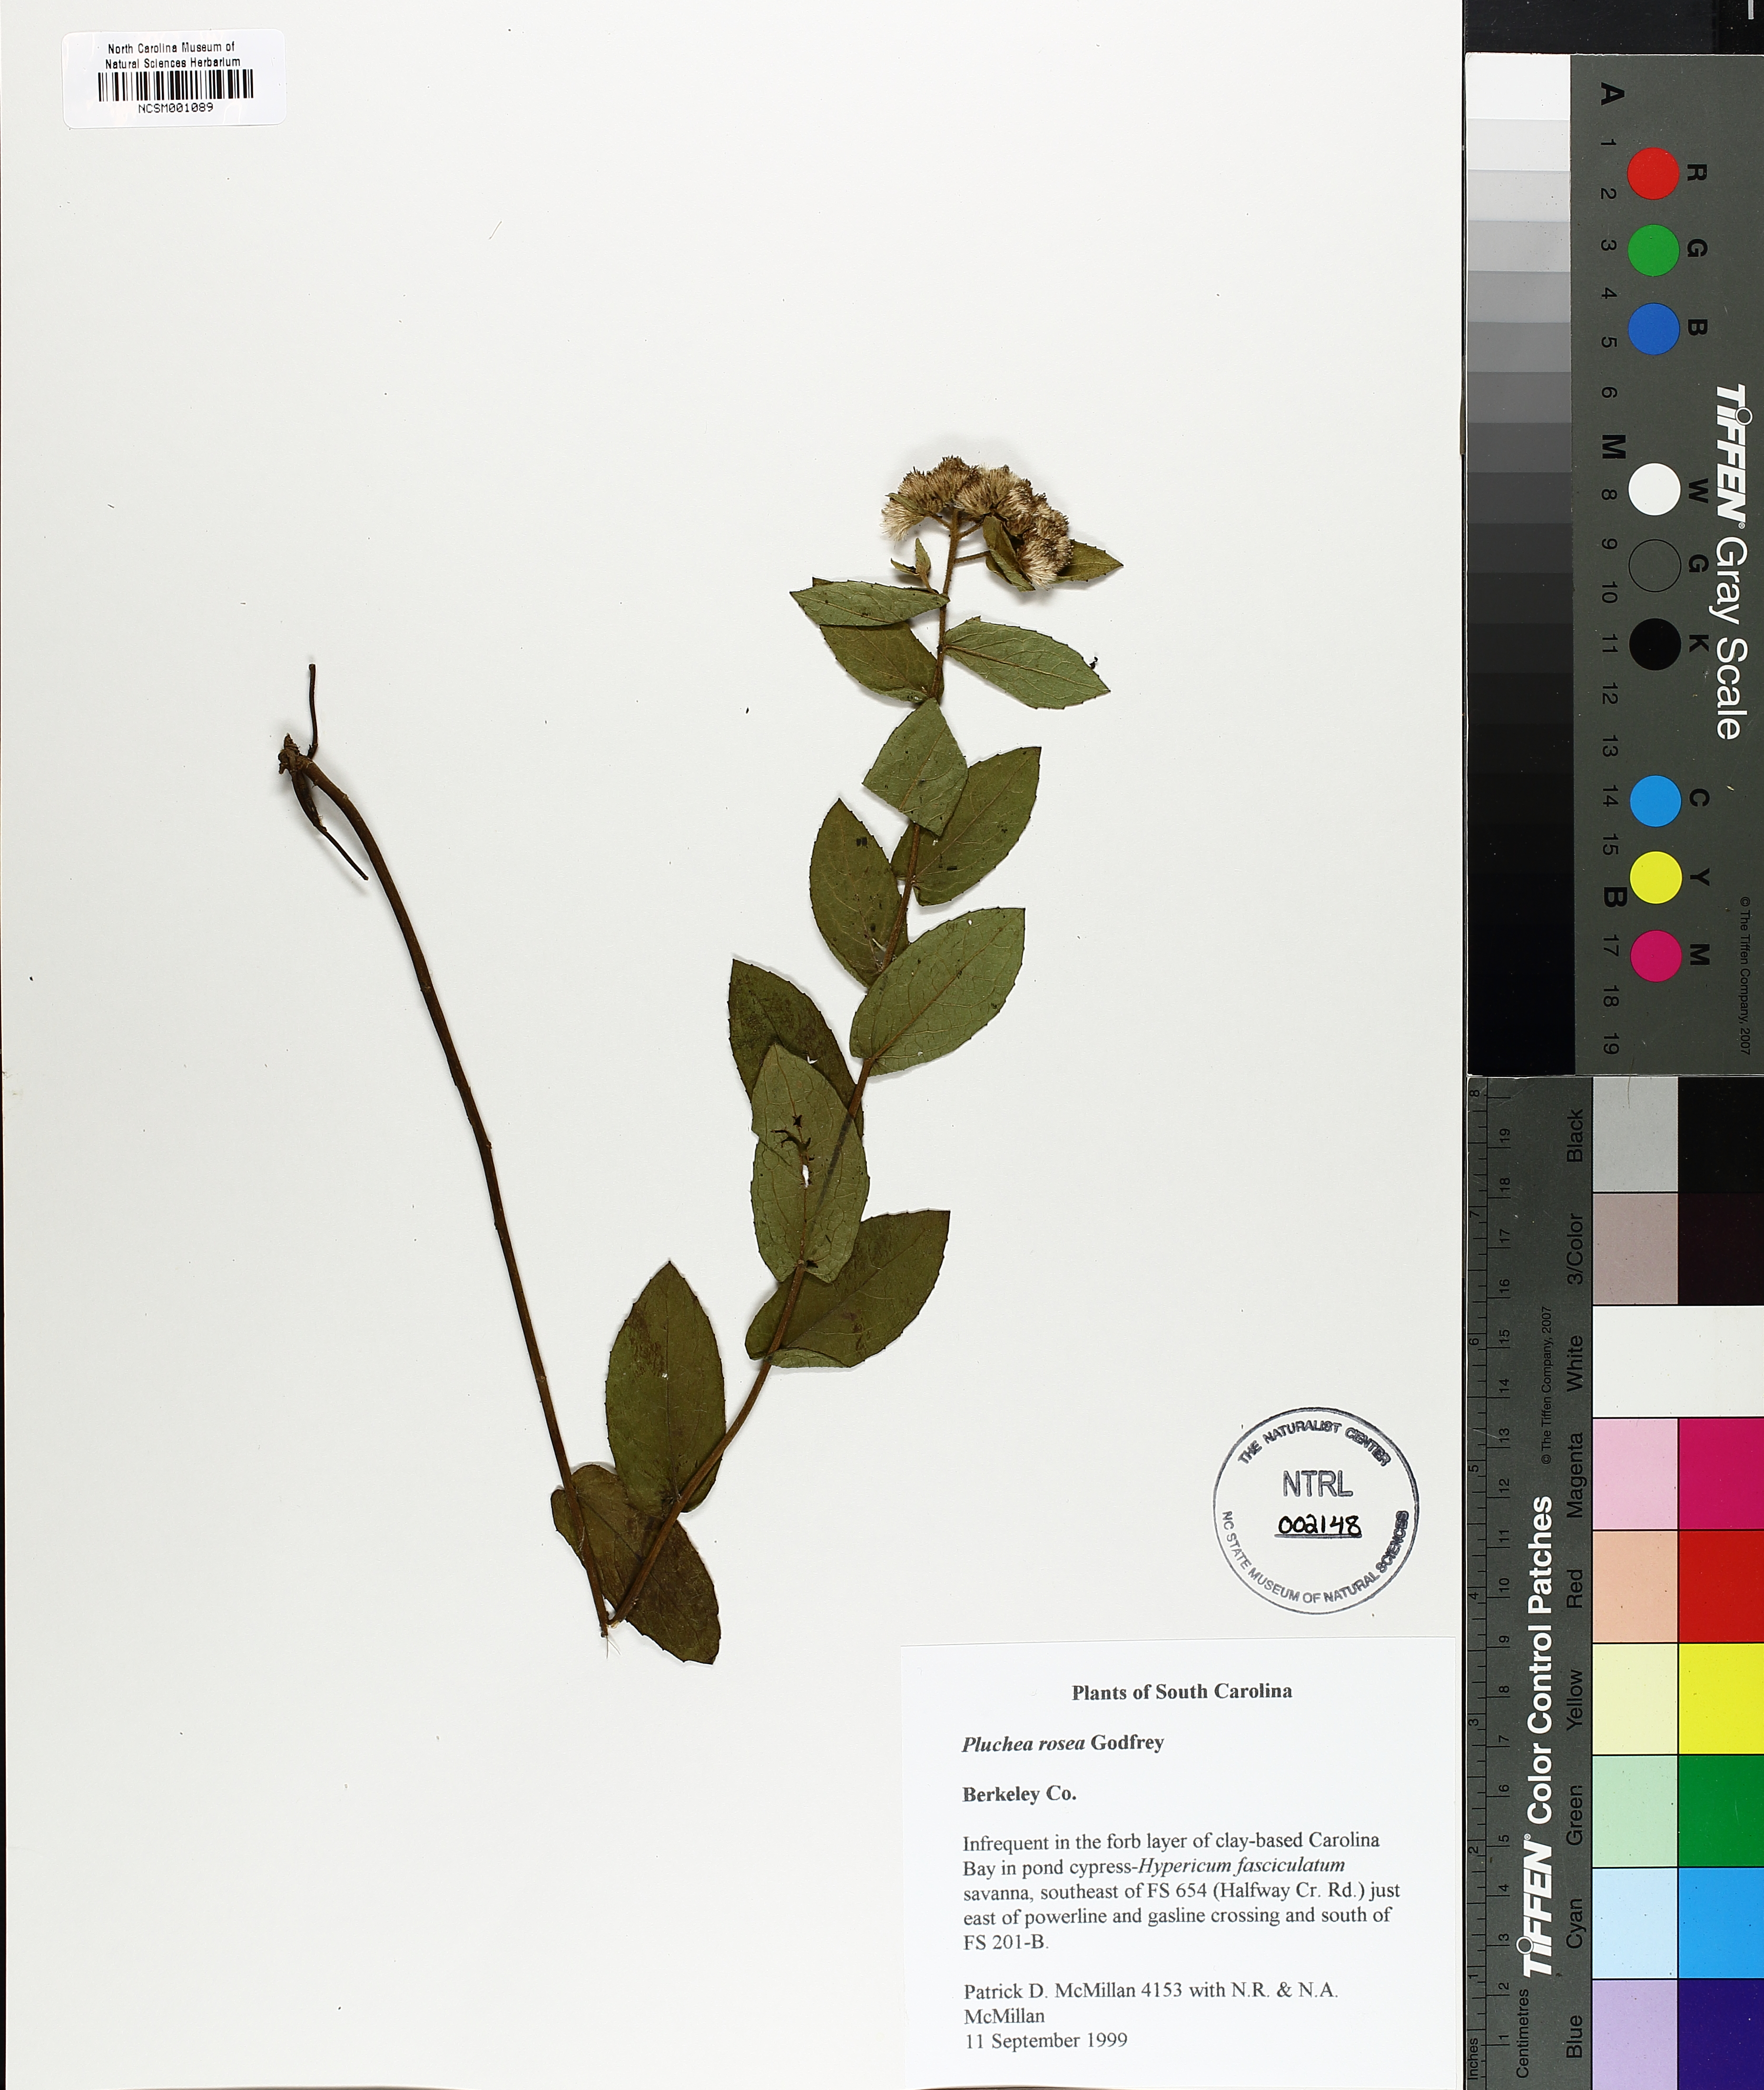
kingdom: Plantae
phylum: Tracheophyta
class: Magnoliopsida
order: Asterales
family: Asteraceae
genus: Pluchea
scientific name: Pluchea baccharis
